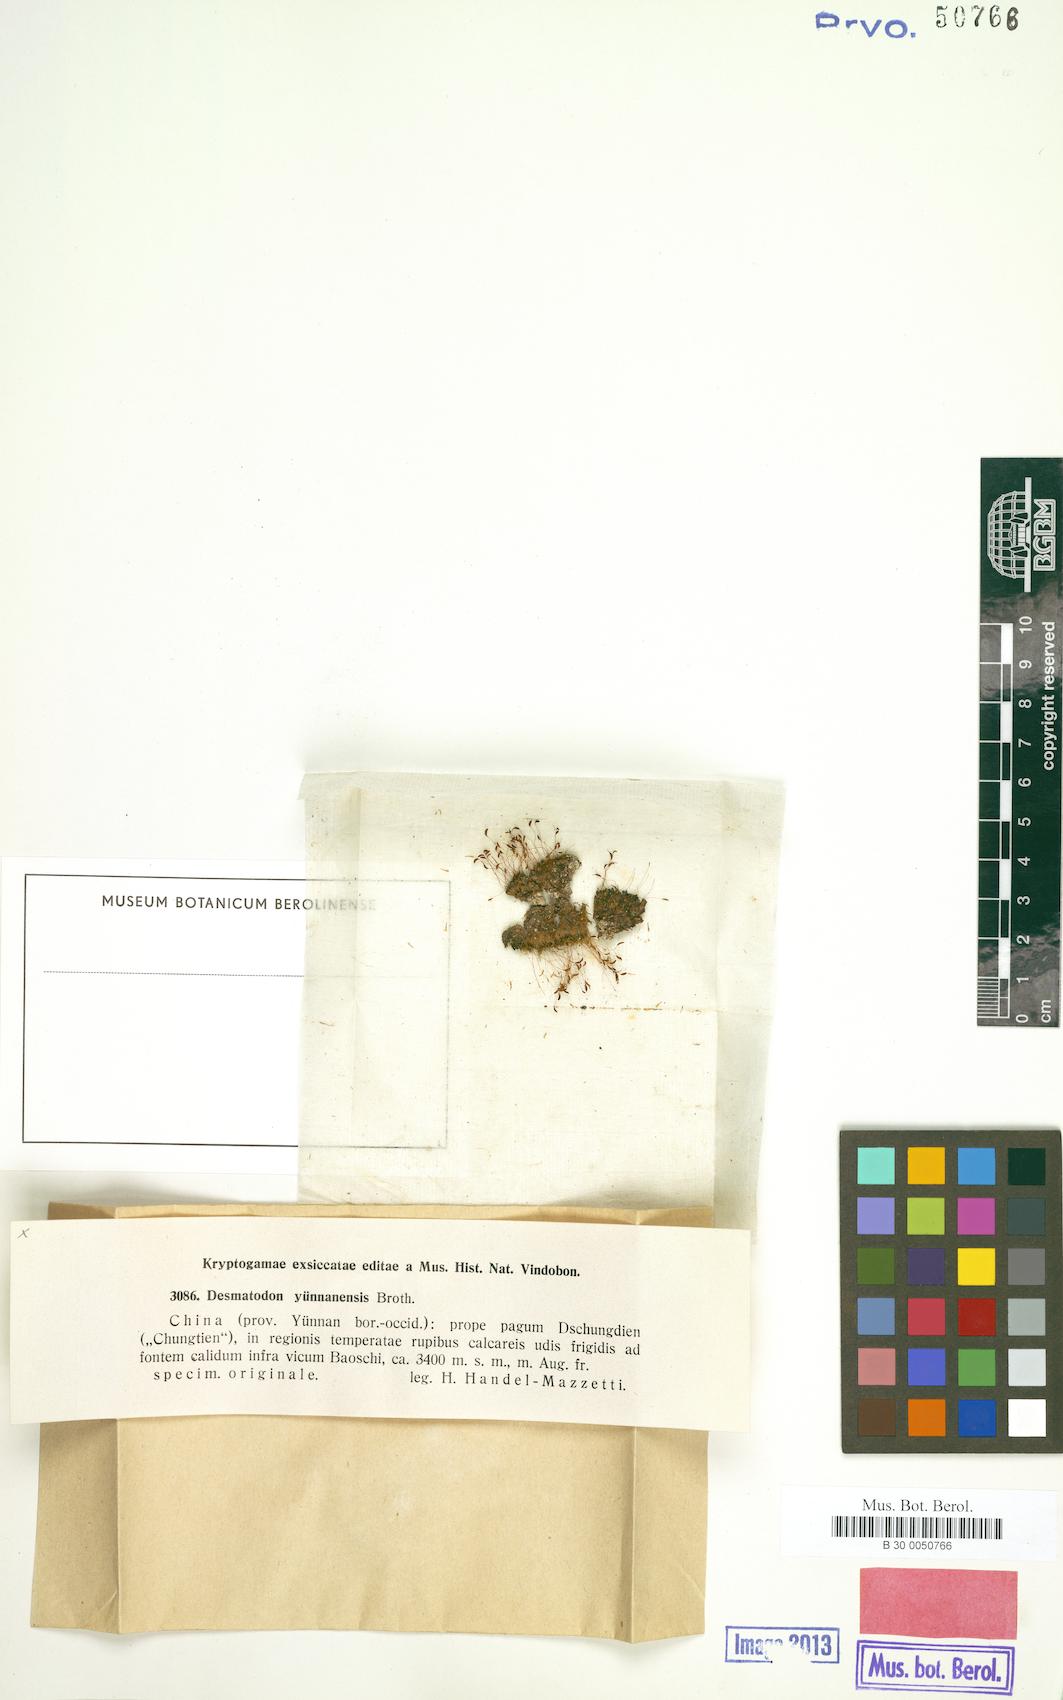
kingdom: Plantae
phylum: Bryophyta
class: Bryopsida
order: Pottiales
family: Pottiaceae
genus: Tortula
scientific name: Tortula chungtienia
